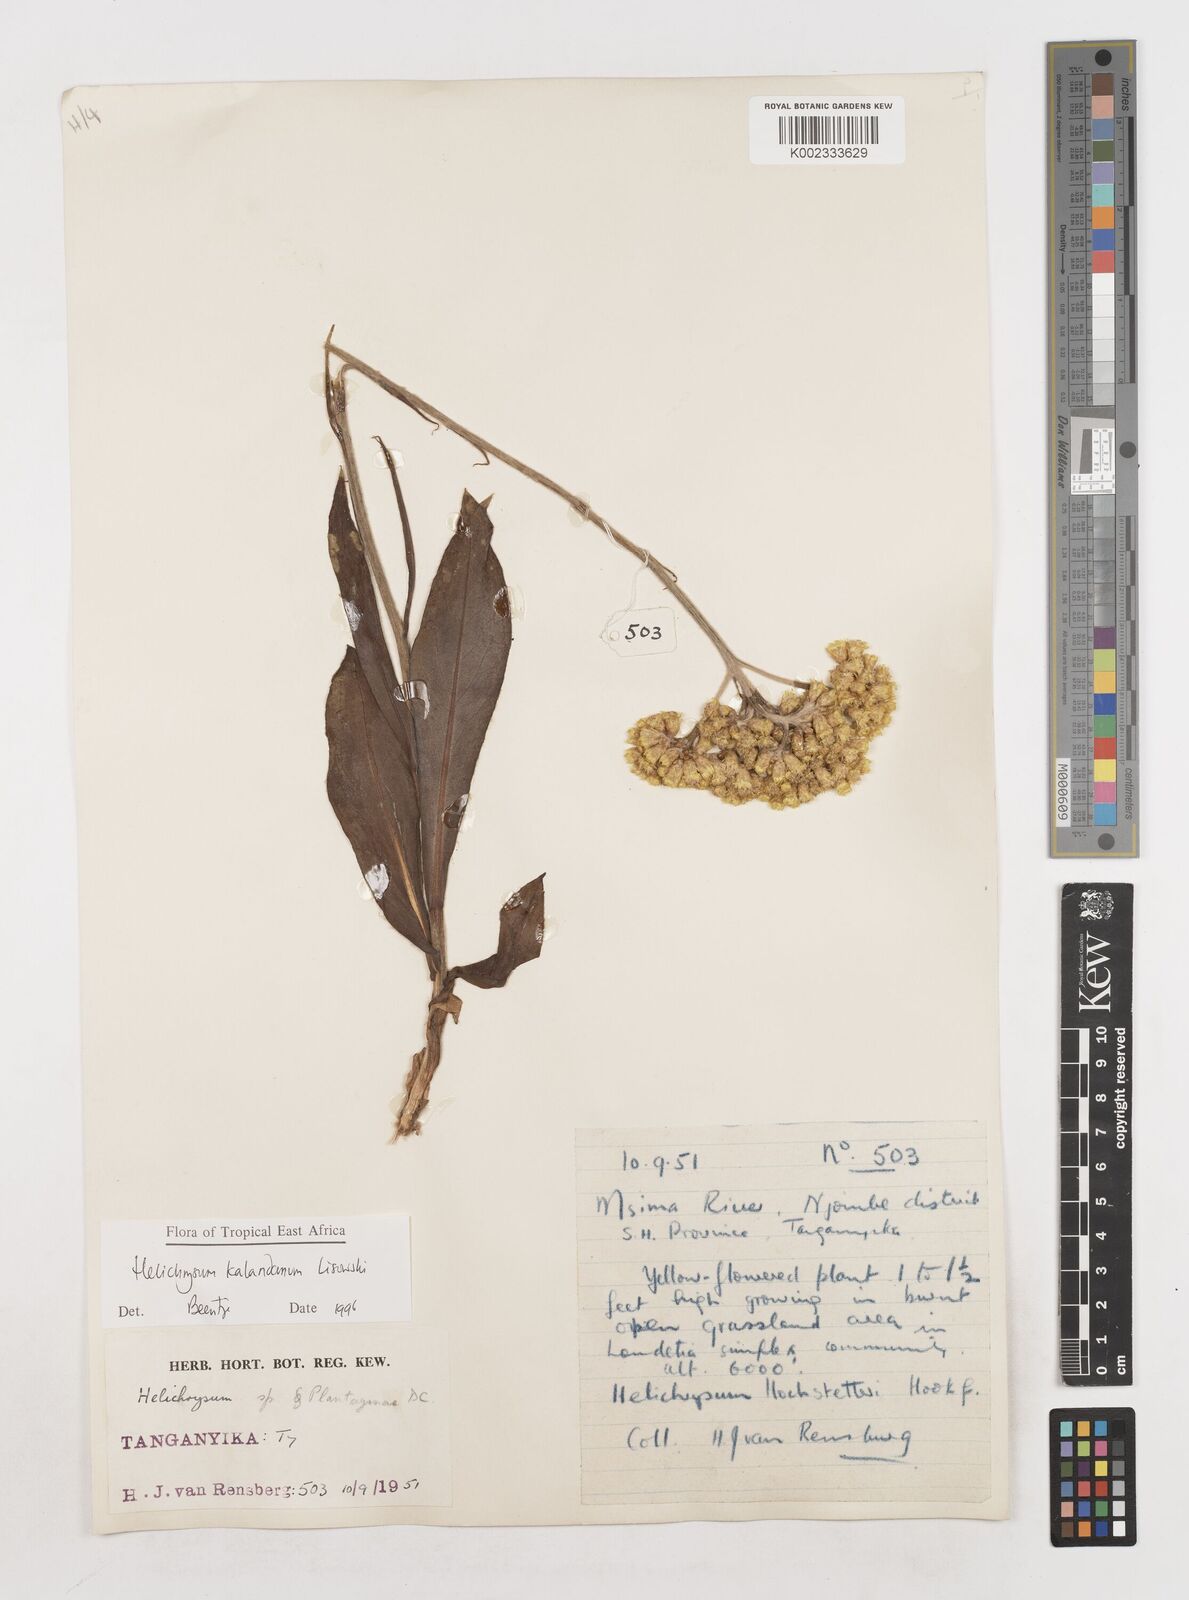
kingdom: Plantae
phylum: Tracheophyta
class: Magnoliopsida
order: Asterales
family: Asteraceae
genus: Helichrysum
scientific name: Helichrysum kalandanum
